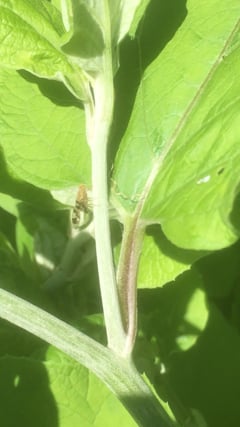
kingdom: Animalia
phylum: Arthropoda
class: Insecta
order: Diptera
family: Tephritidae
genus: Tephritis
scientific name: Tephritis bardanae
